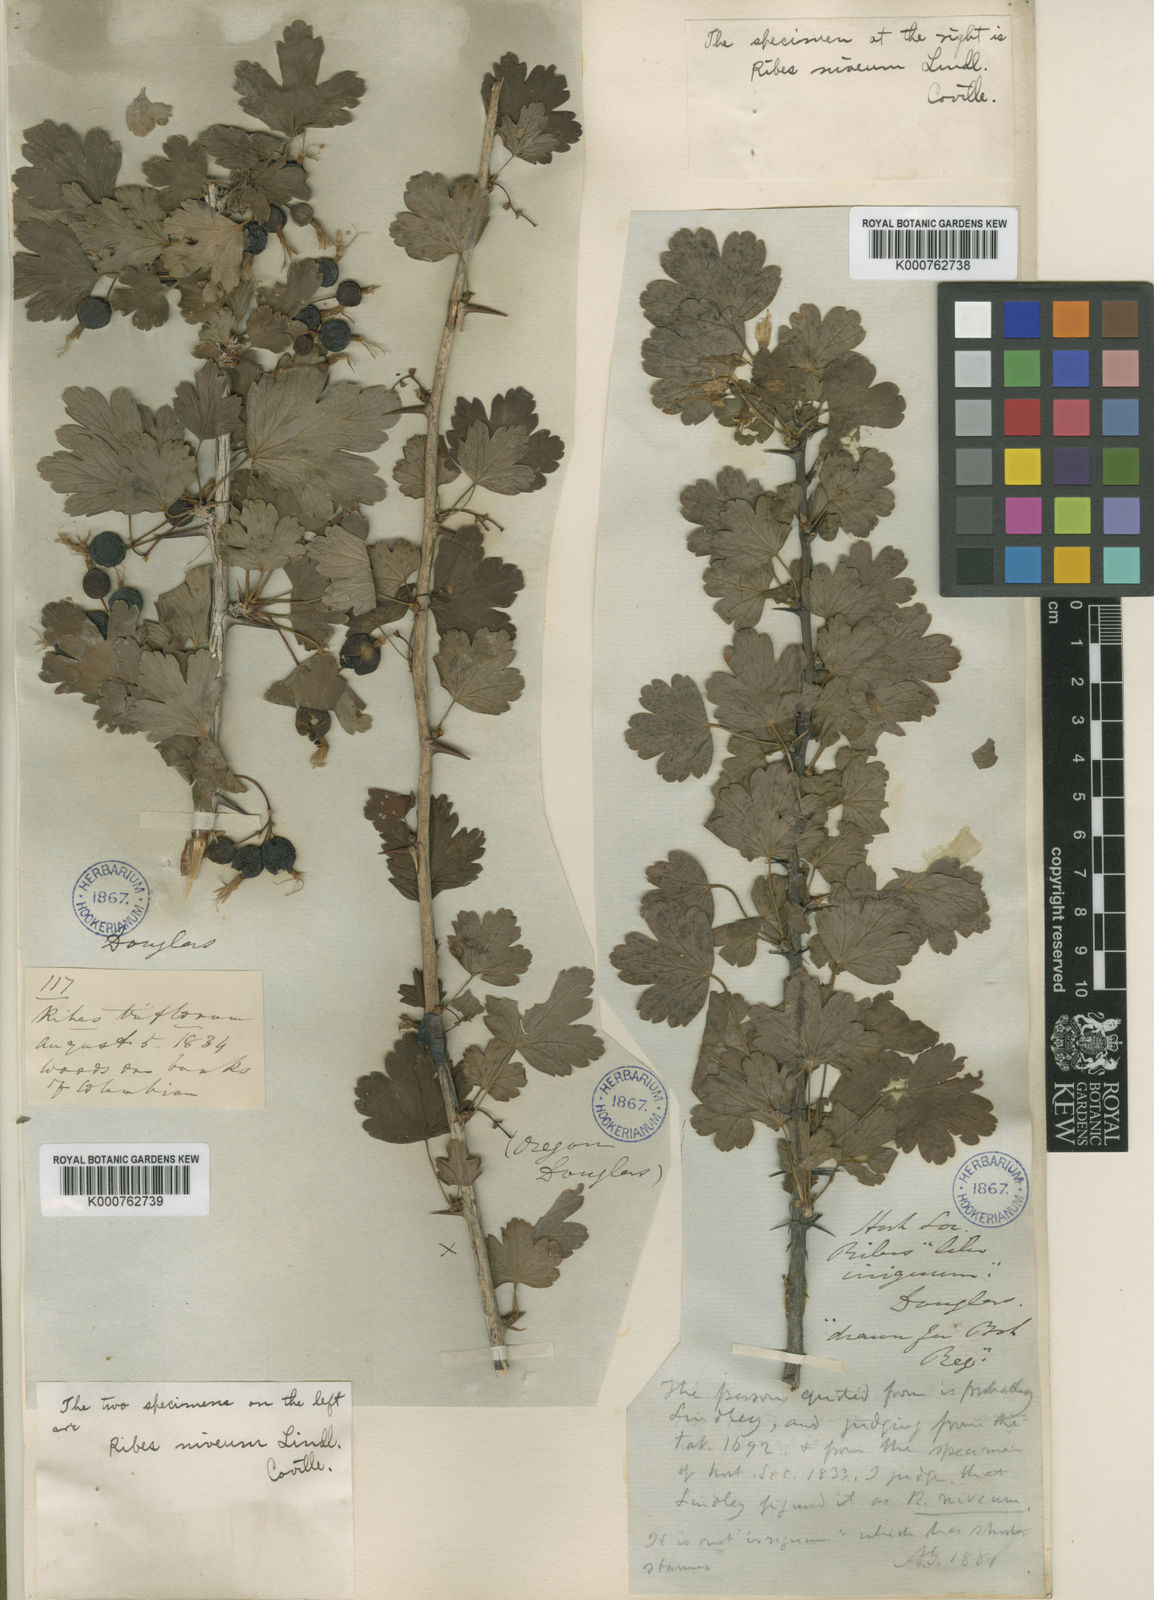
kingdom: Plantae
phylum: Tracheophyta
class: Magnoliopsida
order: Saxifragales
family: Grossulariaceae
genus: Ribes
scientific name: Ribes niveum
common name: Snake river gooseberry
